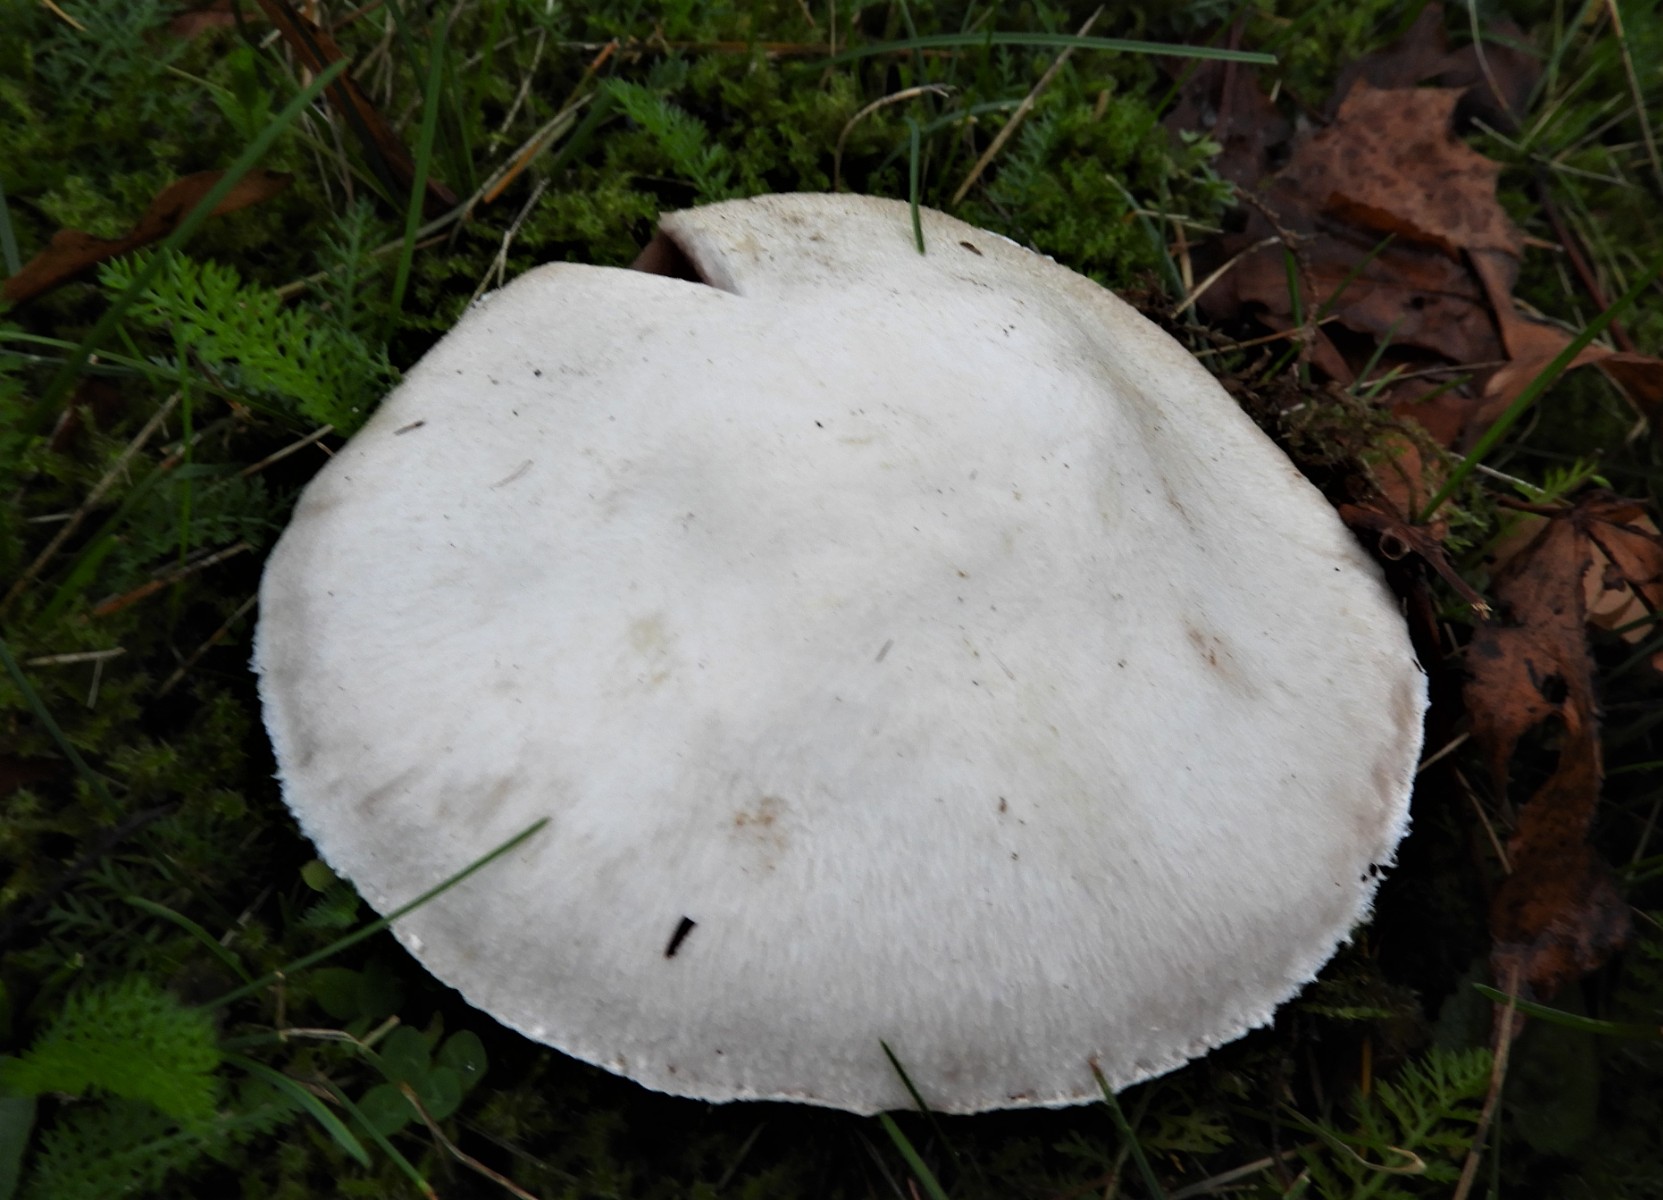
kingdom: Fungi
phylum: Basidiomycota
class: Agaricomycetes
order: Agaricales
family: Agaricaceae
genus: Agaricus
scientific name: Agaricus campestris
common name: mark-champignon
